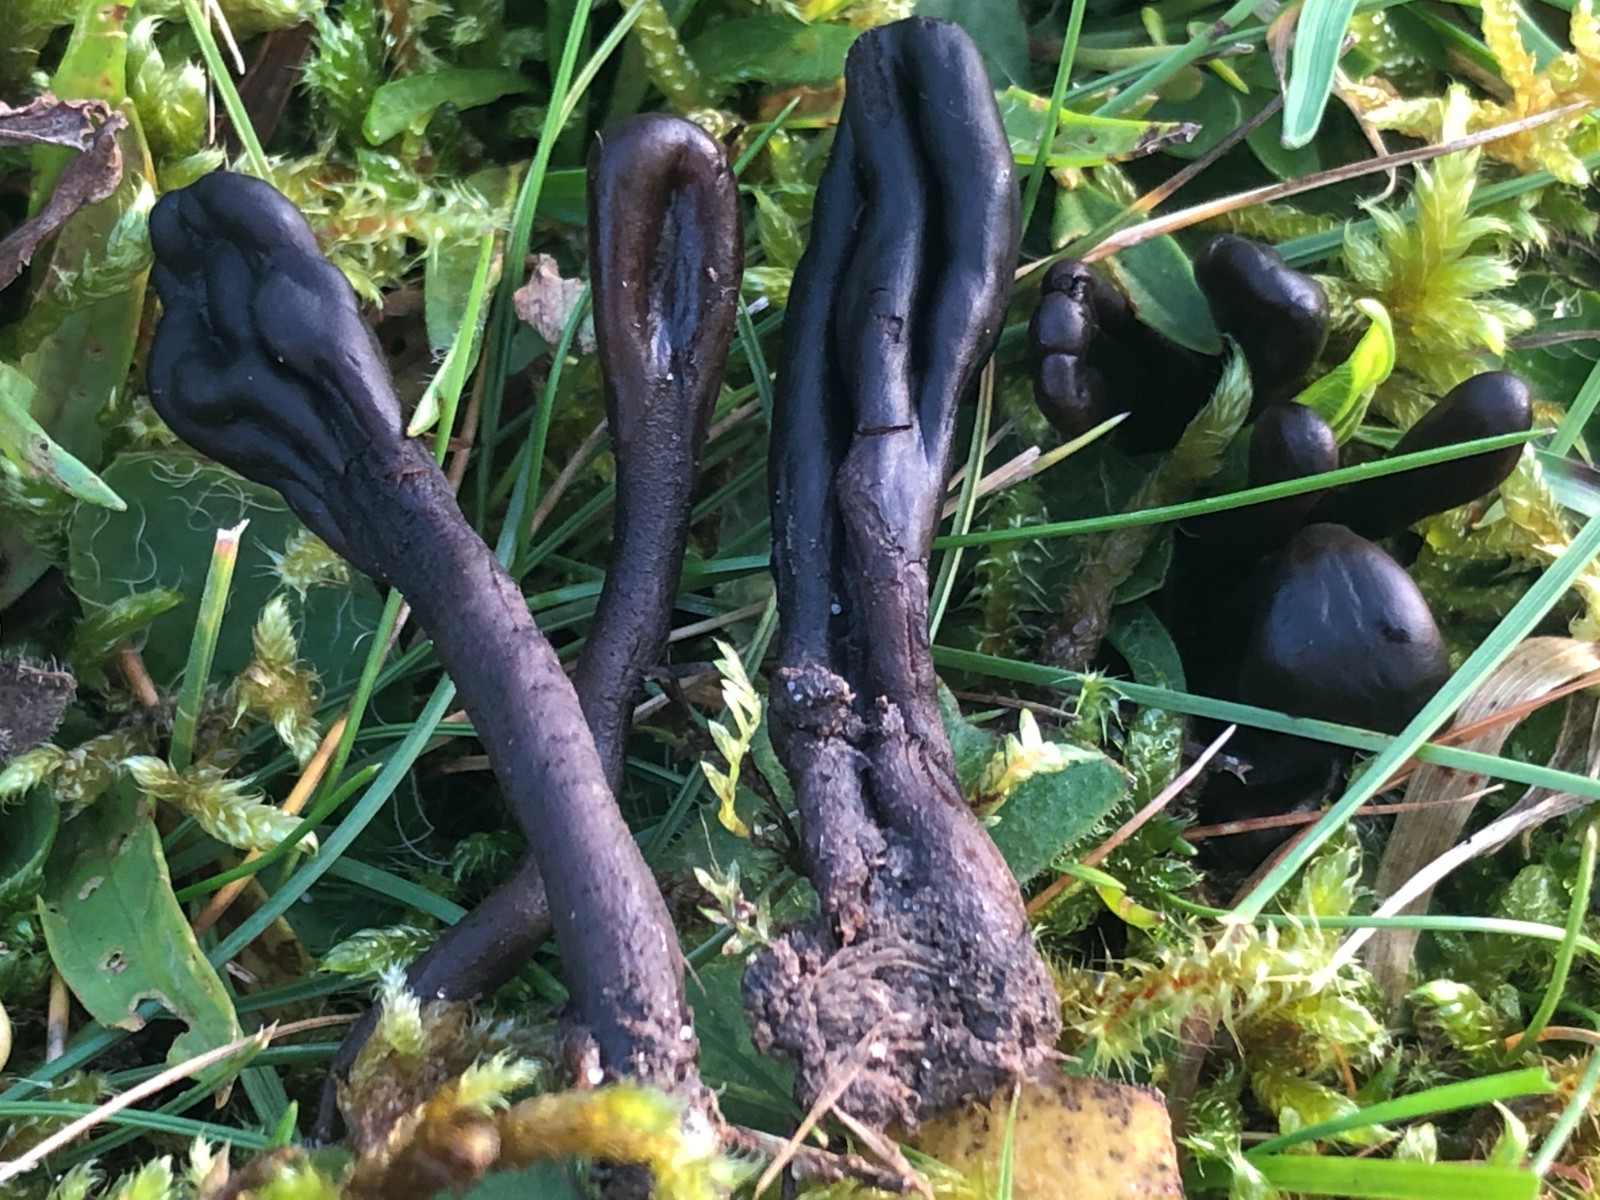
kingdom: Fungi
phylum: Ascomycota
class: Geoglossomycetes
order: Geoglossales
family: Geoglossaceae
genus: Geoglossum
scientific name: Geoglossum atropurpureum
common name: purpursort farvetunge
